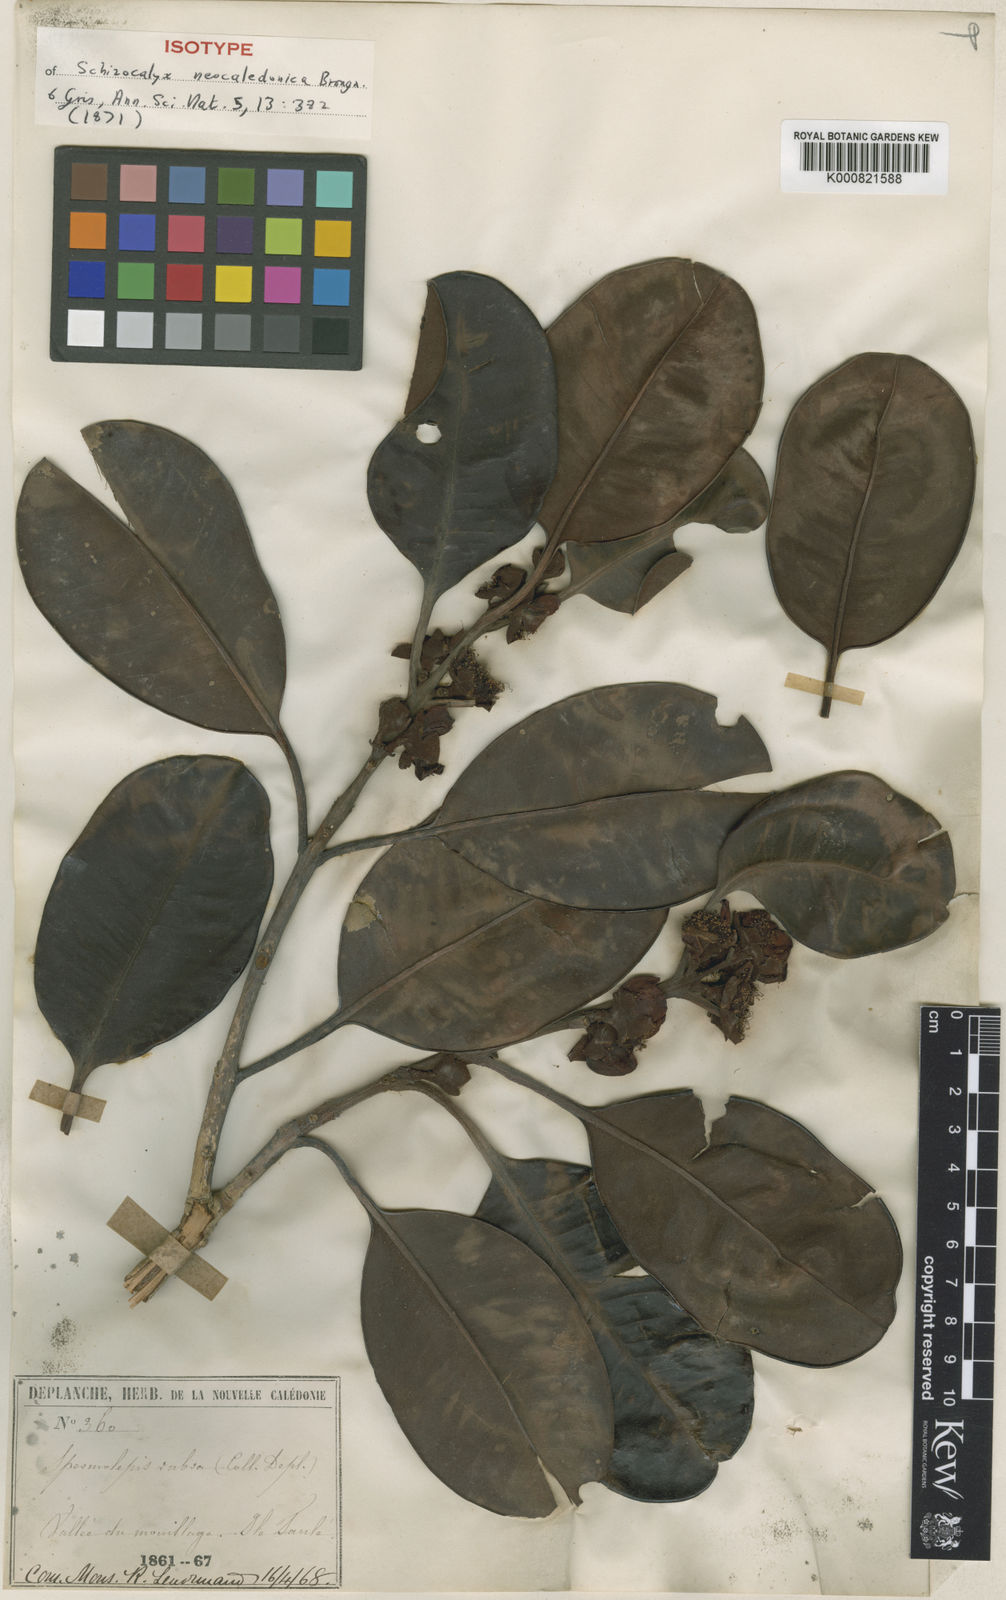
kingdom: Plantae
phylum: Tracheophyta
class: Magnoliopsida
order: Myrtales
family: Myrtaceae
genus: Stereocaryum
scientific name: Stereocaryum ovigerum
